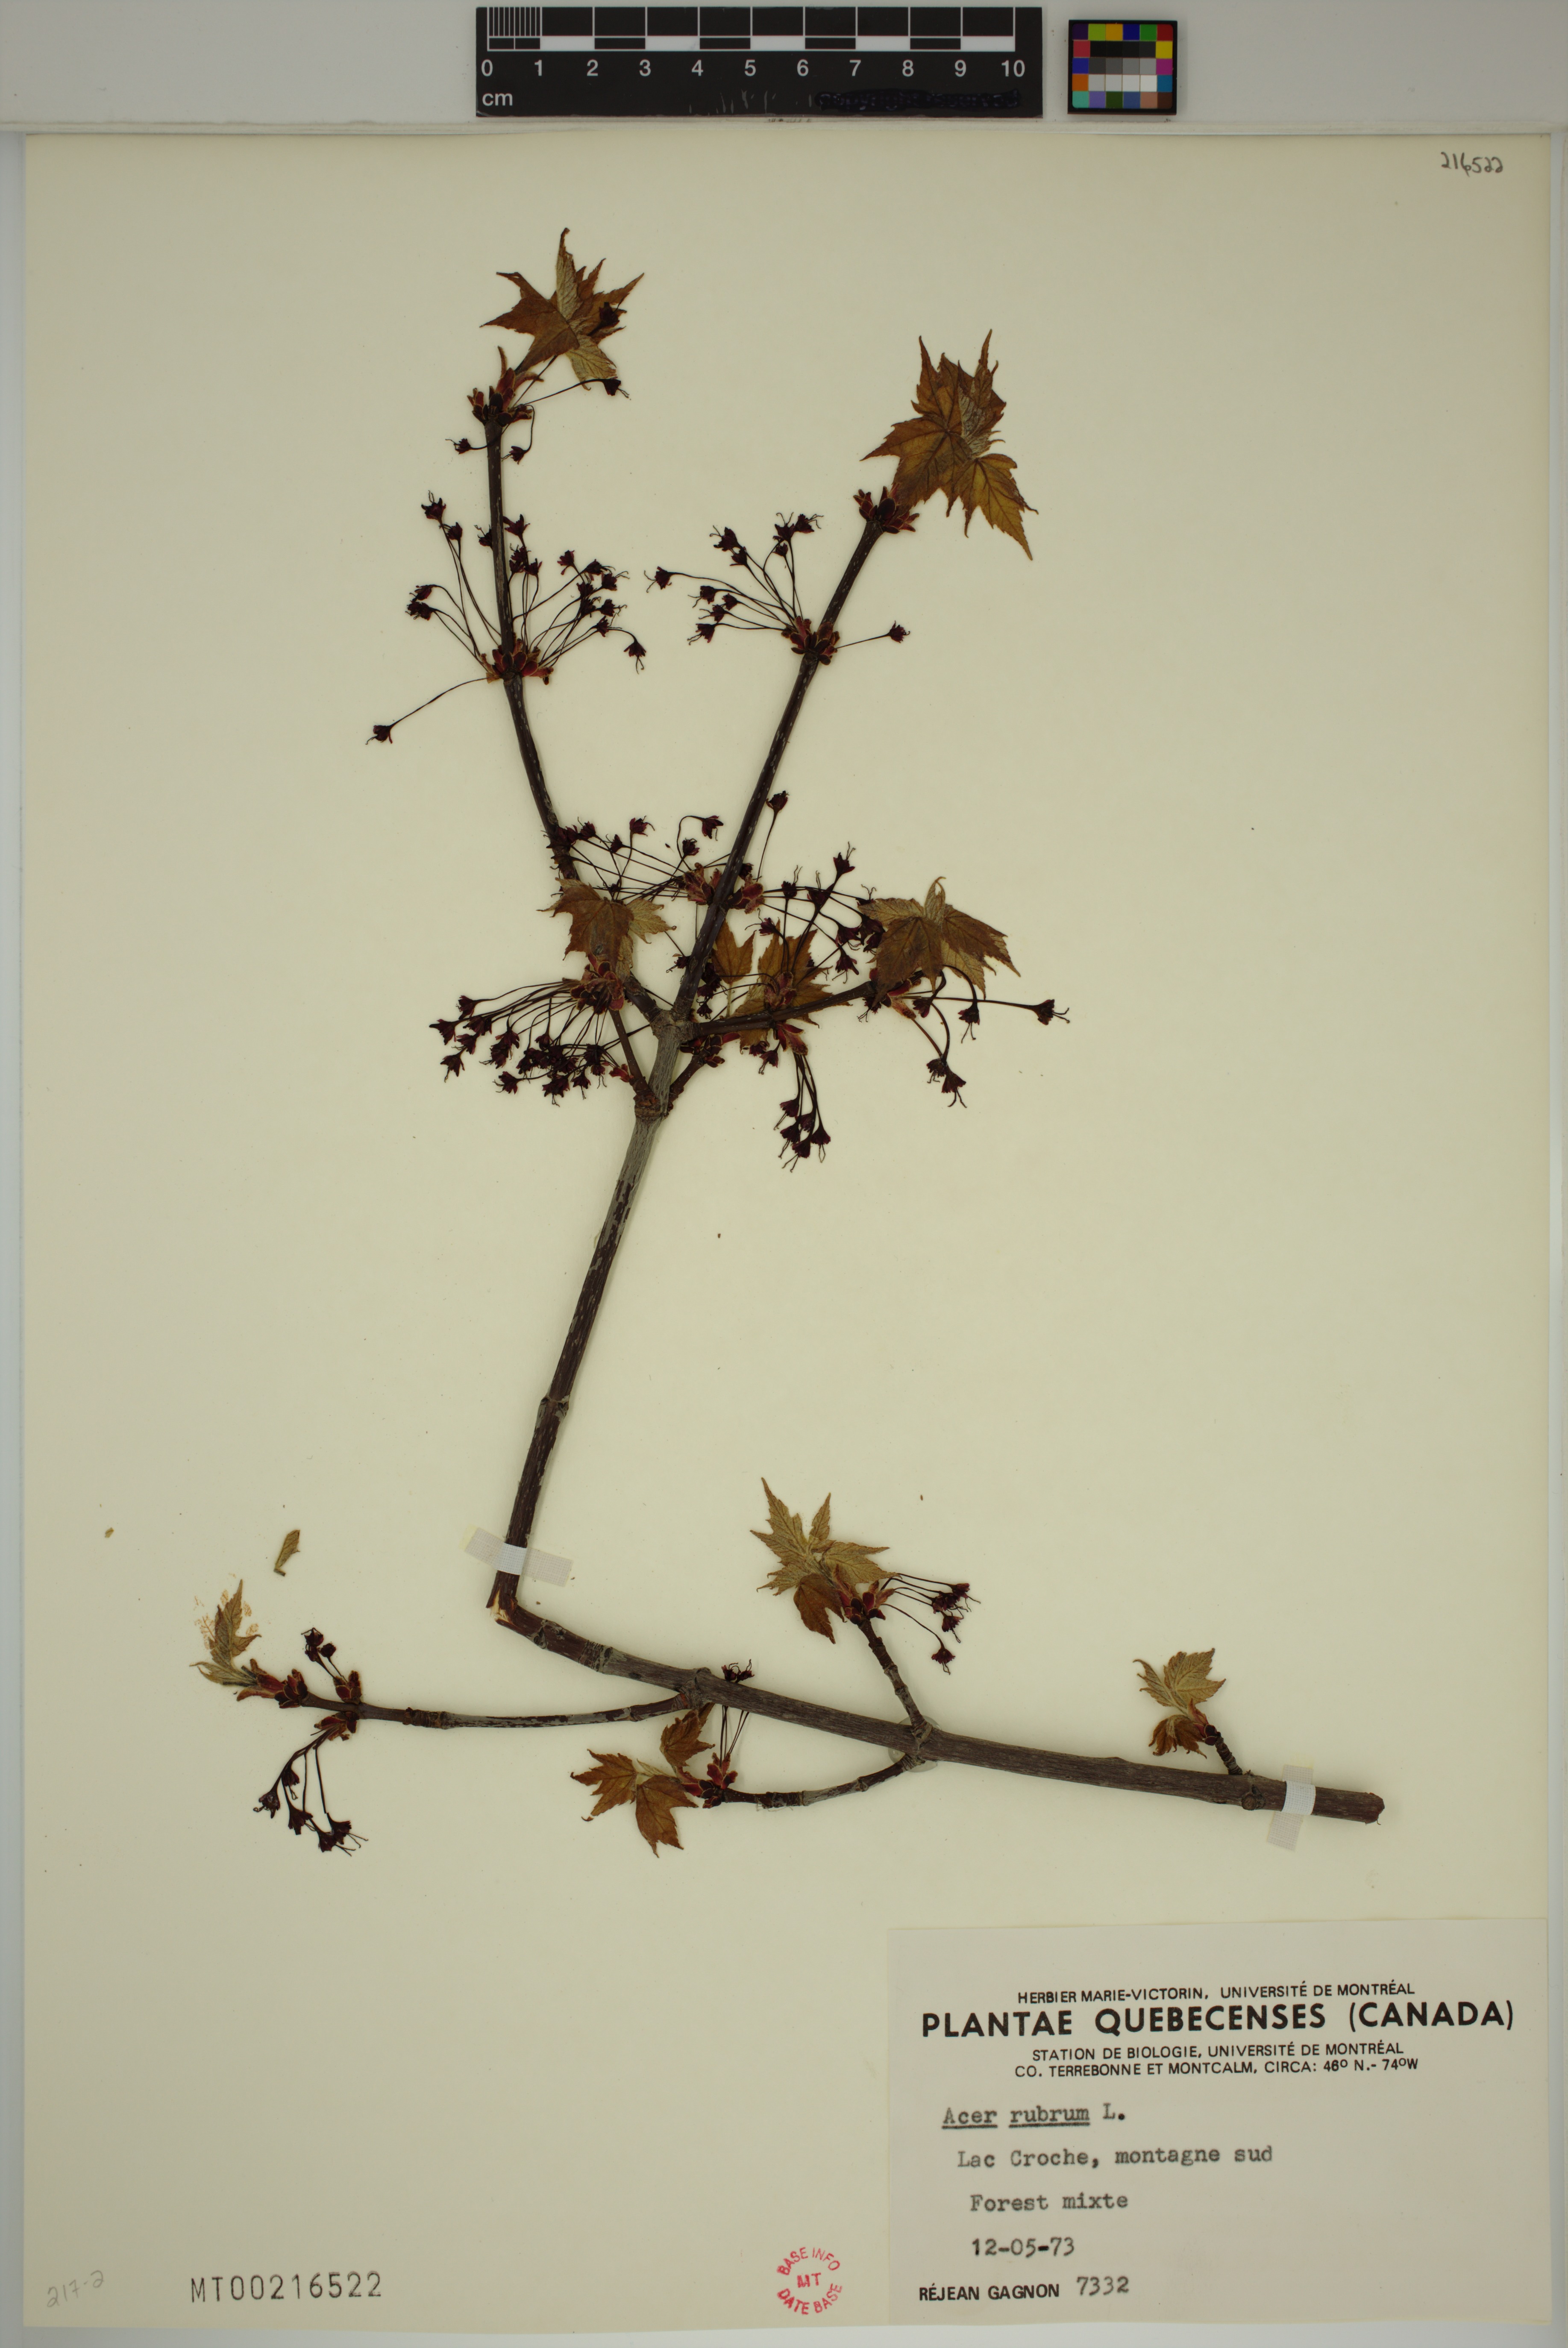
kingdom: Plantae
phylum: Tracheophyta
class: Magnoliopsida
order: Sapindales
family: Sapindaceae
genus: Acer
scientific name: Acer rubrum
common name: Red maple
